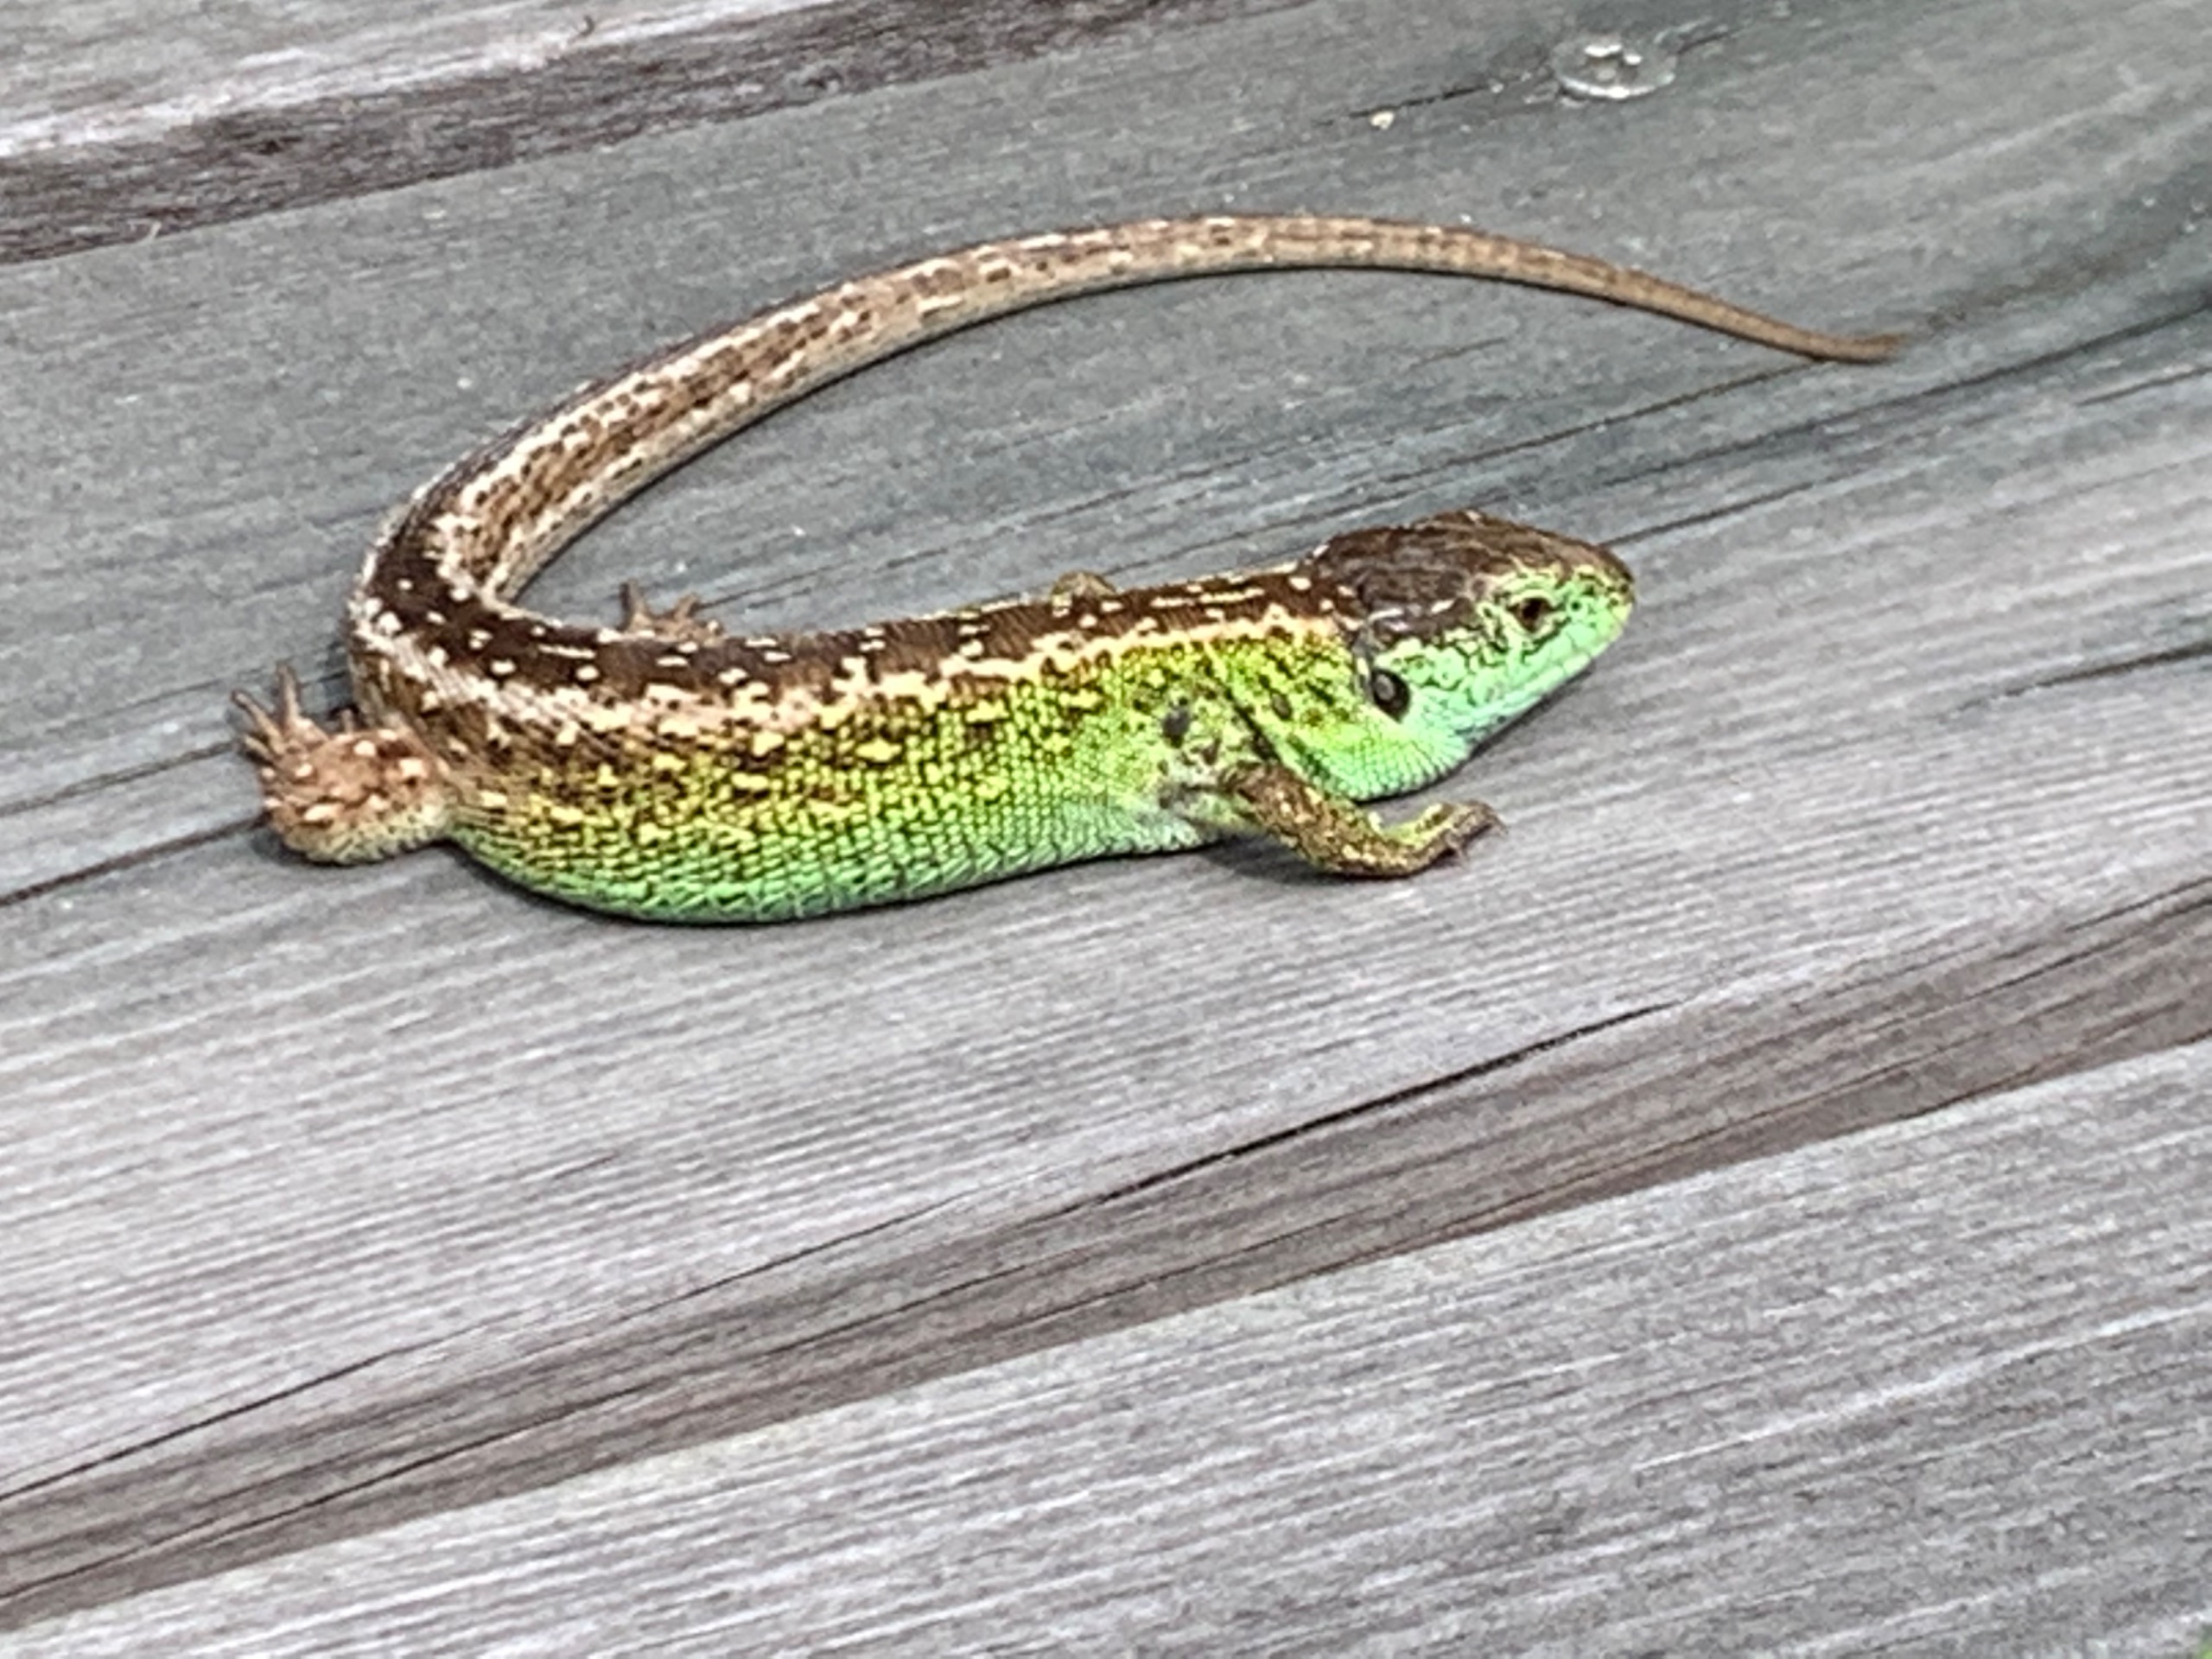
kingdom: Animalia
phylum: Chordata
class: Squamata
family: Lacertidae
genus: Lacerta
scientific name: Lacerta agilis
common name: Markfirben
